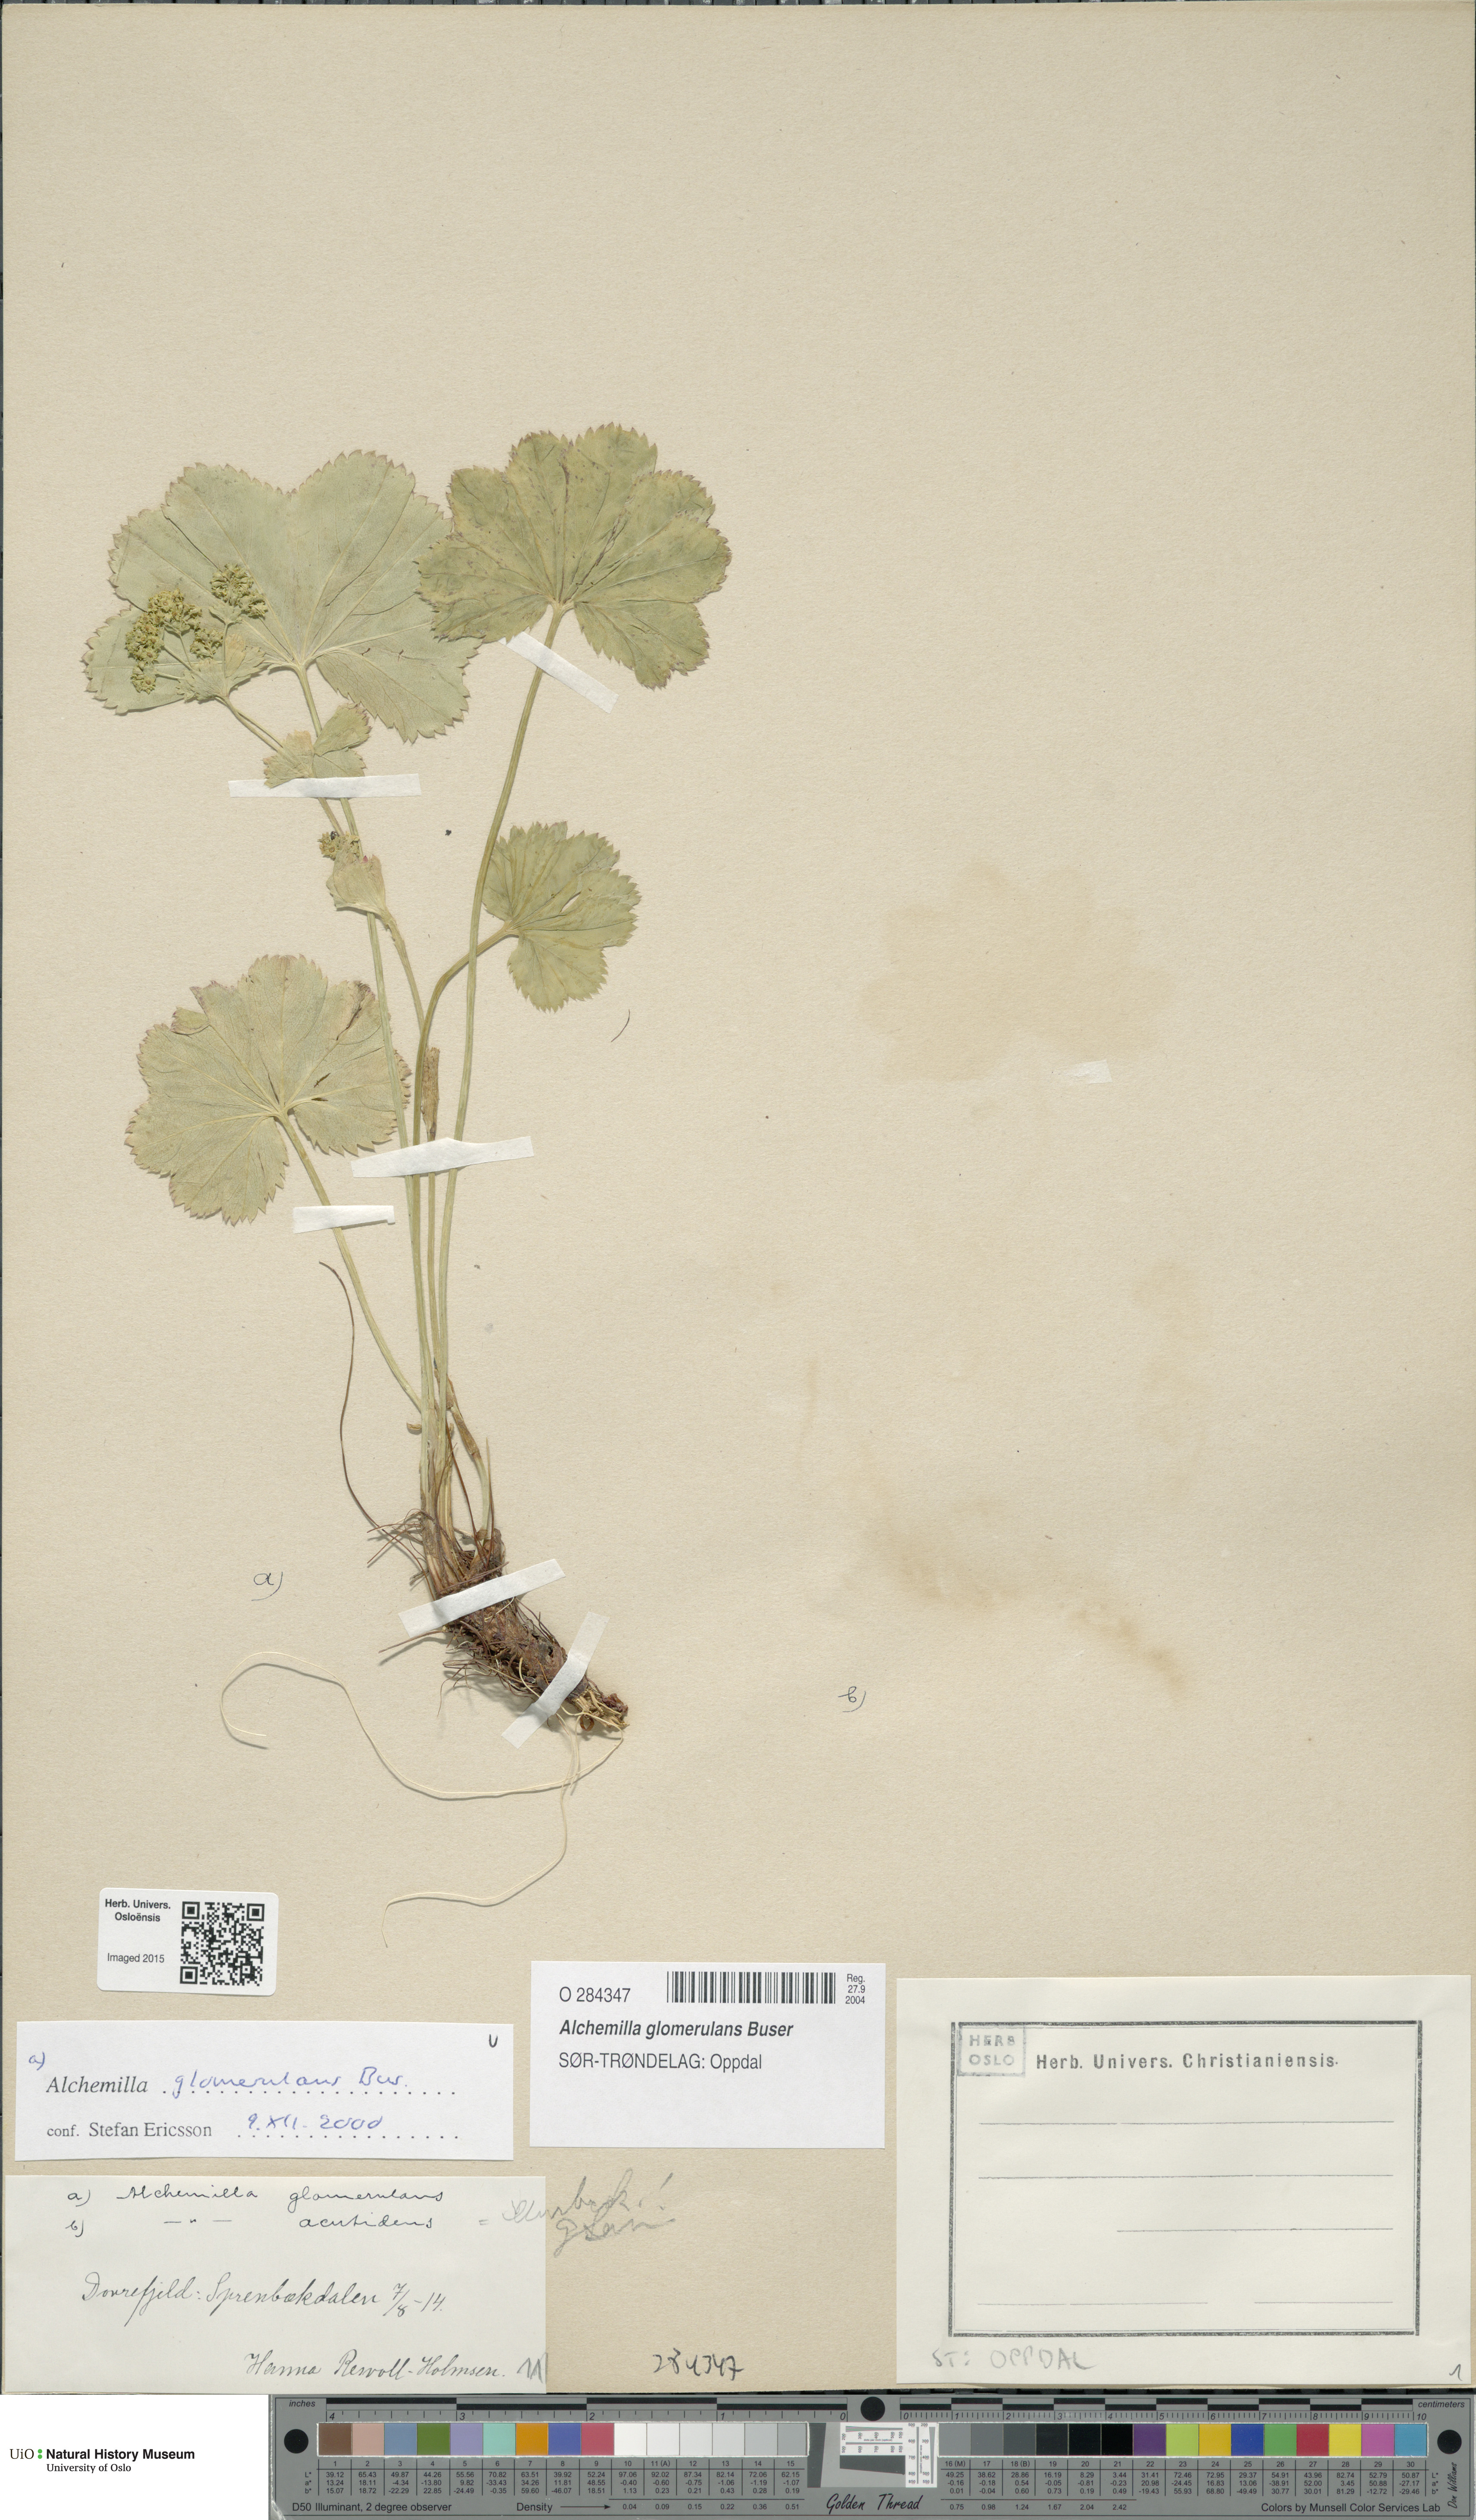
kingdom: Plantae
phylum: Tracheophyta
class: Magnoliopsida
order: Rosales
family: Rosaceae
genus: Alchemilla
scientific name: Alchemilla glomerulans
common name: Clustered lady's mantle
